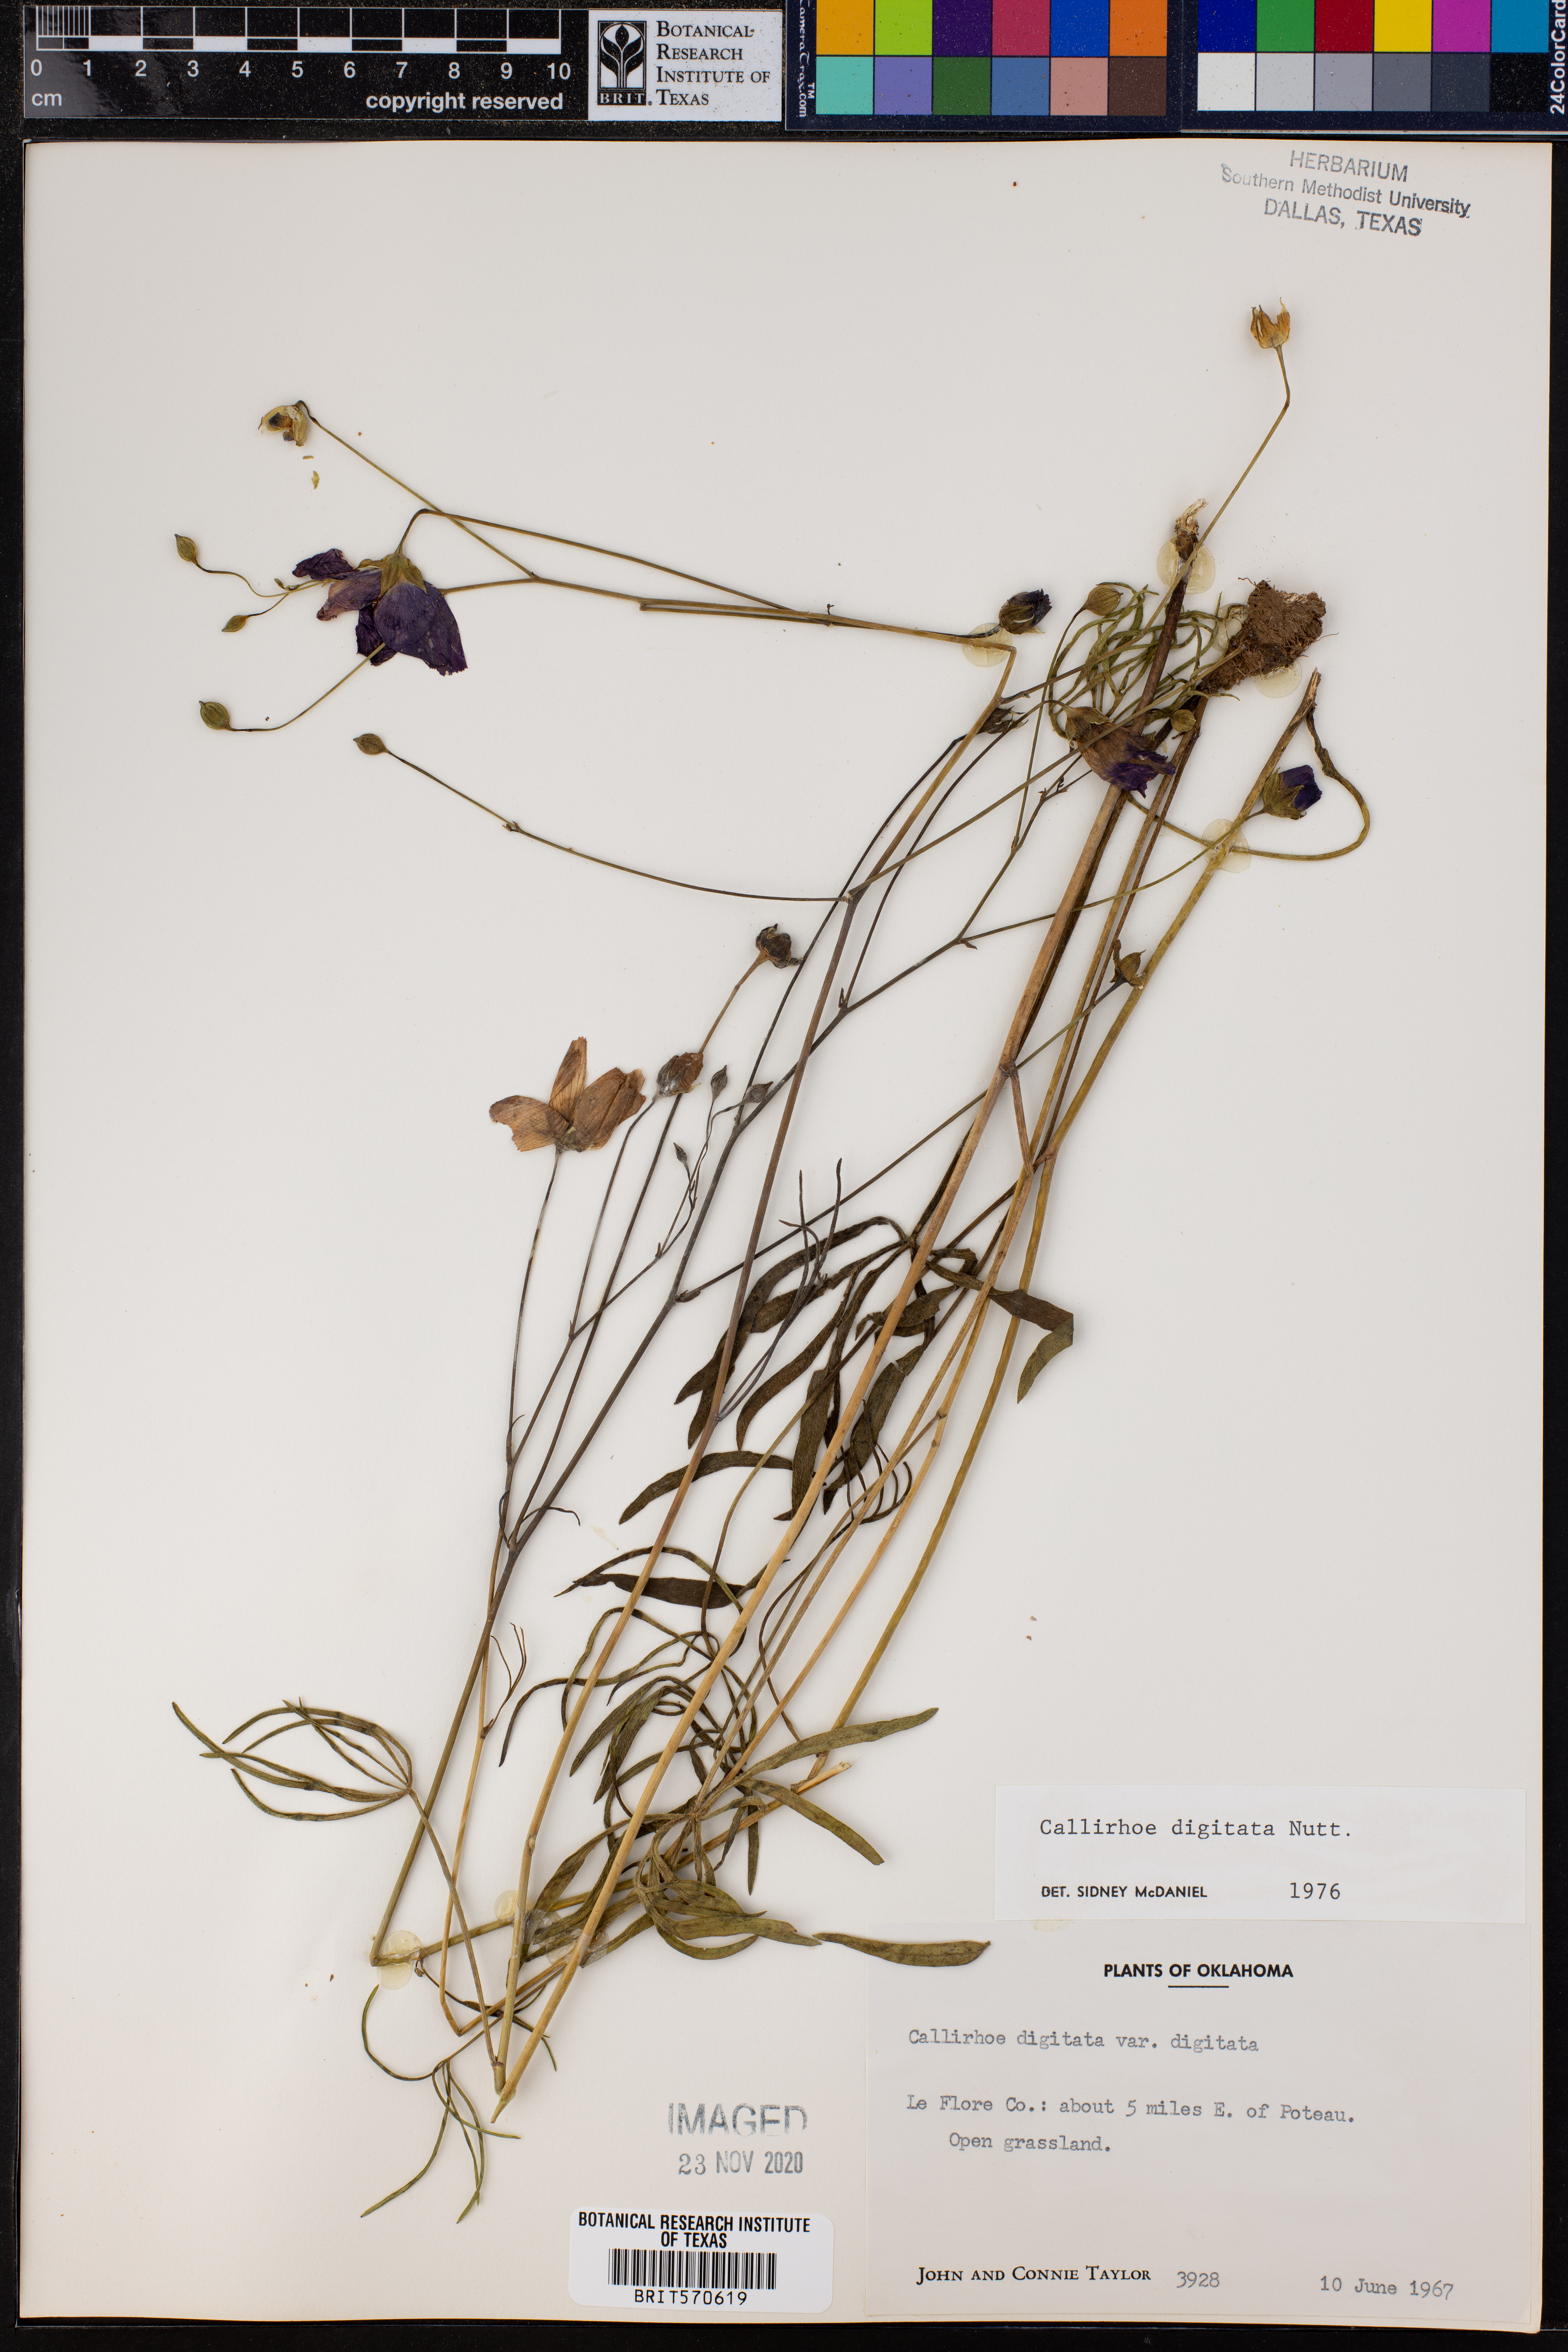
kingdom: Plantae
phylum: Tracheophyta
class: Magnoliopsida
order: Malvales
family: Malvaceae
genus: Callirhoe
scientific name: Callirhoe digitata
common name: Finger poppy-mallow
